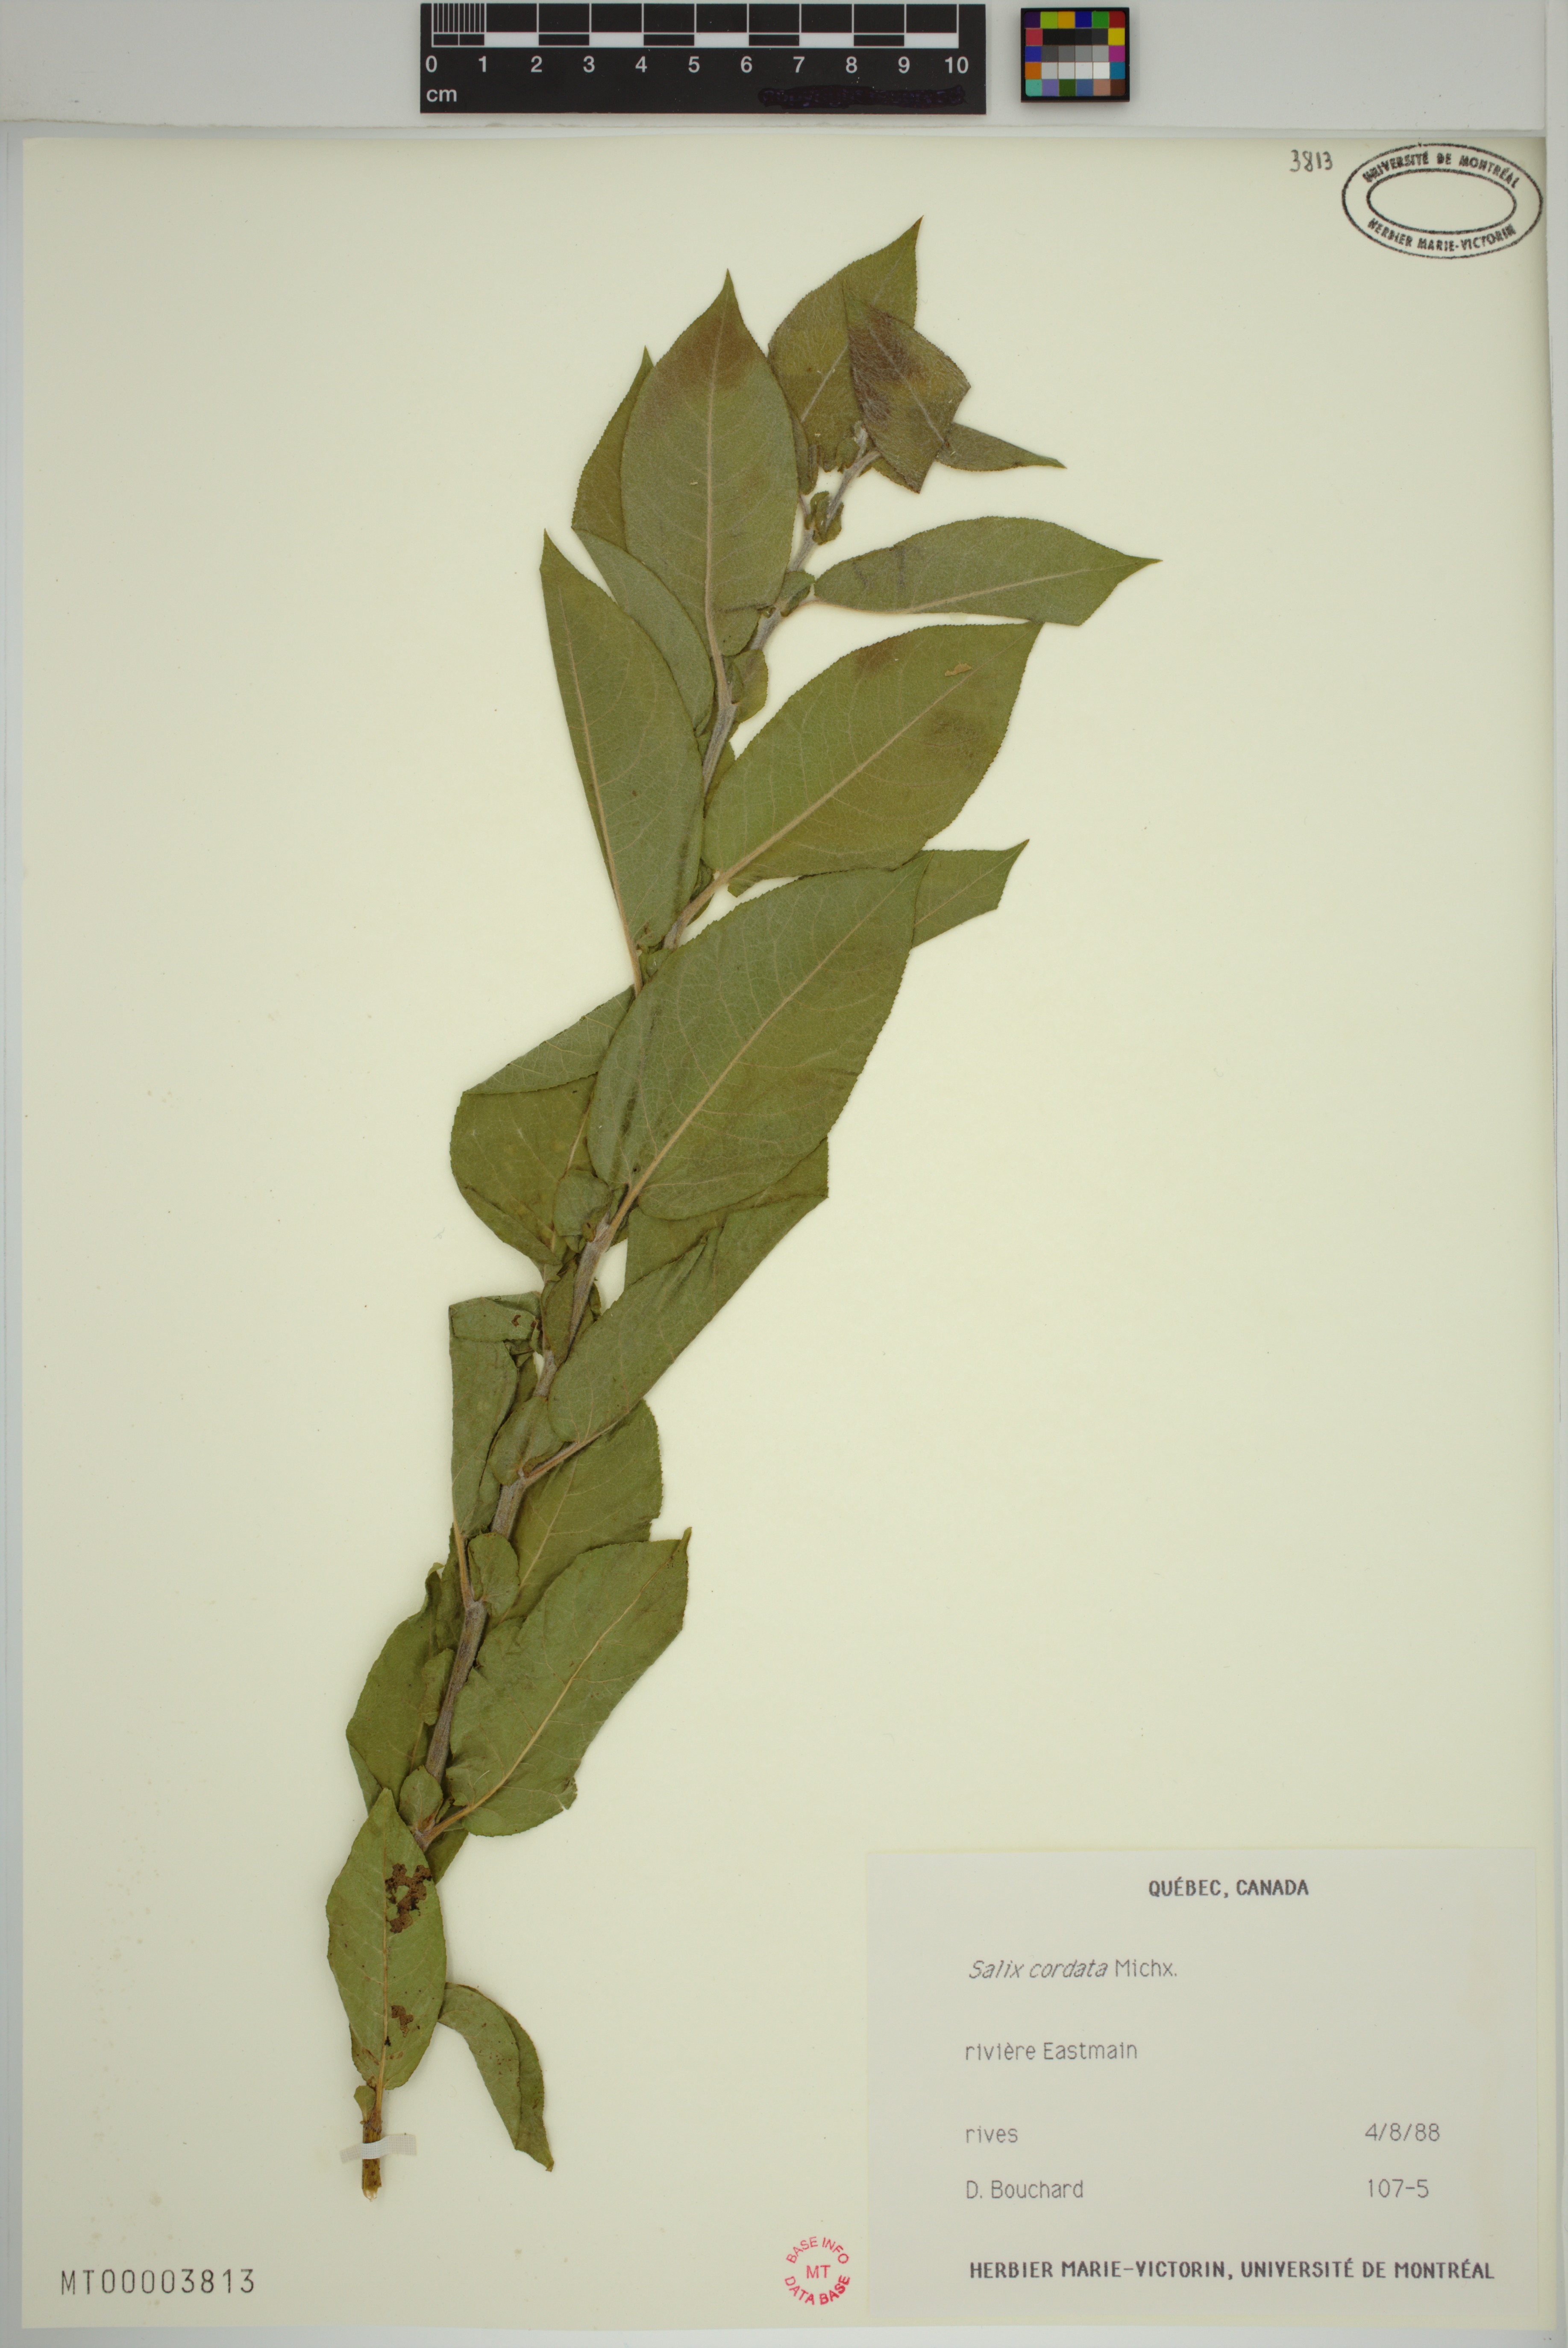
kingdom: Plantae
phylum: Tracheophyta
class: Magnoliopsida
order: Malpighiales
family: Salicaceae
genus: Salix
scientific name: Salix cordata
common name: Heart-leaf willow
